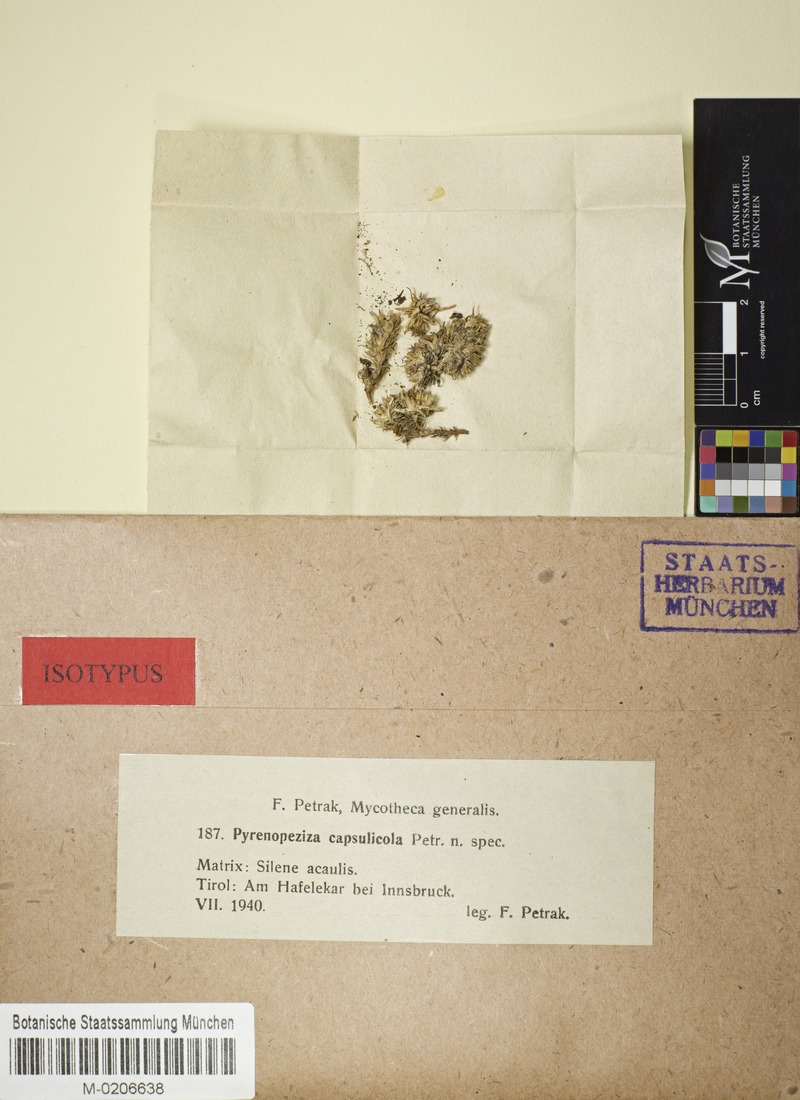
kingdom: Fungi
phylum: Ascomycota
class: Leotiomycetes
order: Helotiales
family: Ploettnerulaceae
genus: Pyrenopeziza
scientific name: Pyrenopeziza capsulicola
